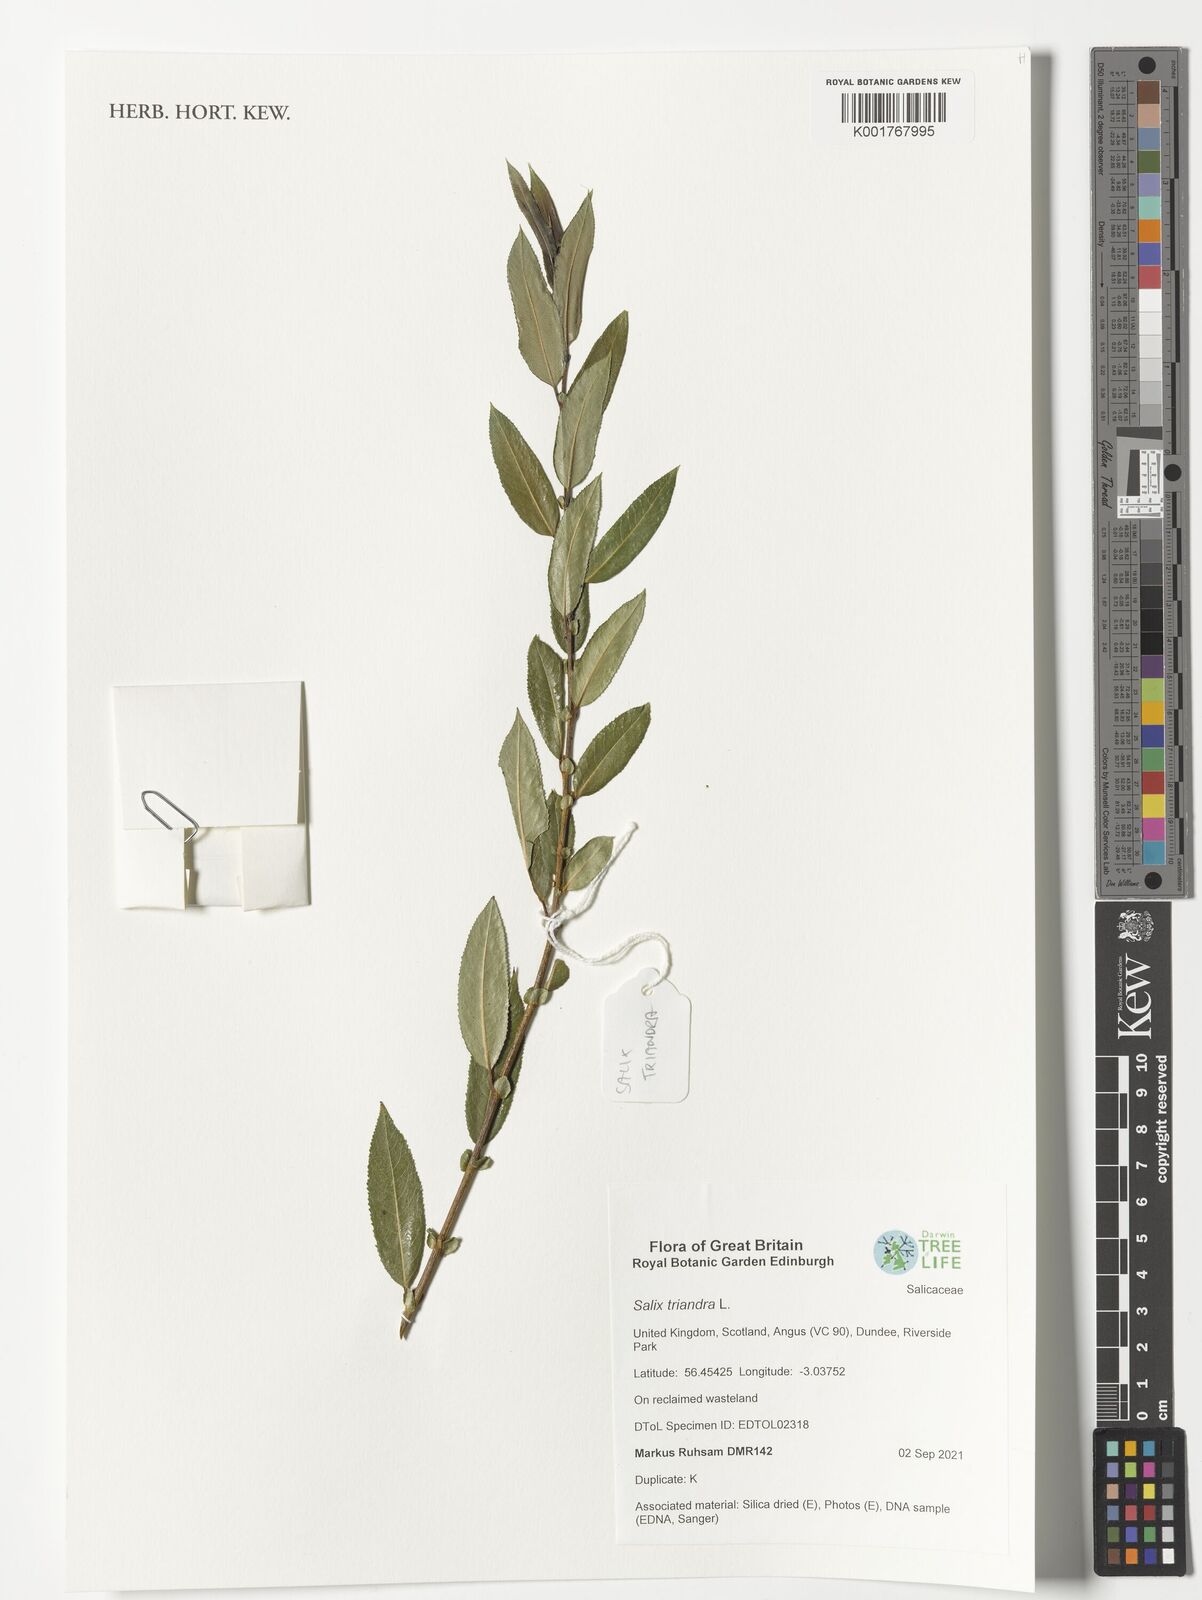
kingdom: Plantae
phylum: Tracheophyta
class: Magnoliopsida
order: Malpighiales
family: Salicaceae
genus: Salix
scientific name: Salix triandra
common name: Almond willow
